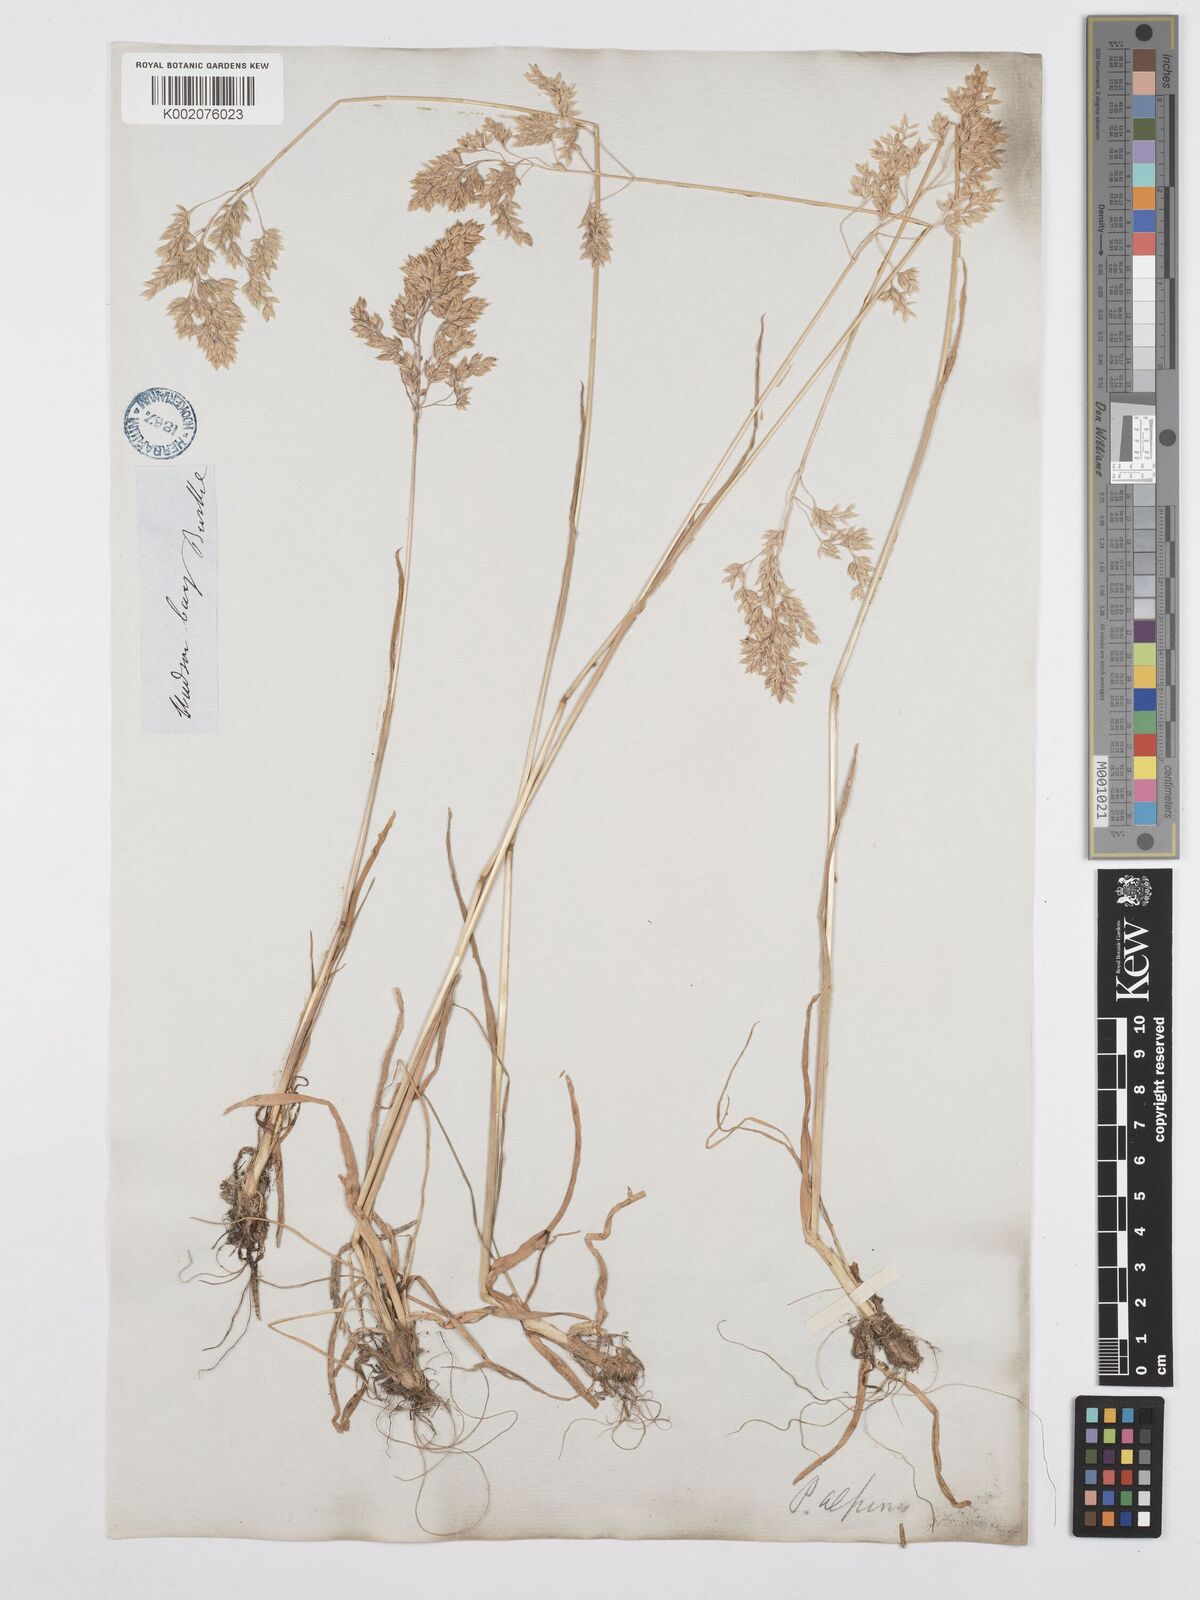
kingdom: Plantae
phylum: Tracheophyta
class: Liliopsida
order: Poales
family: Poaceae
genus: Poa
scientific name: Poa alpina
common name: Alpine bluegrass
